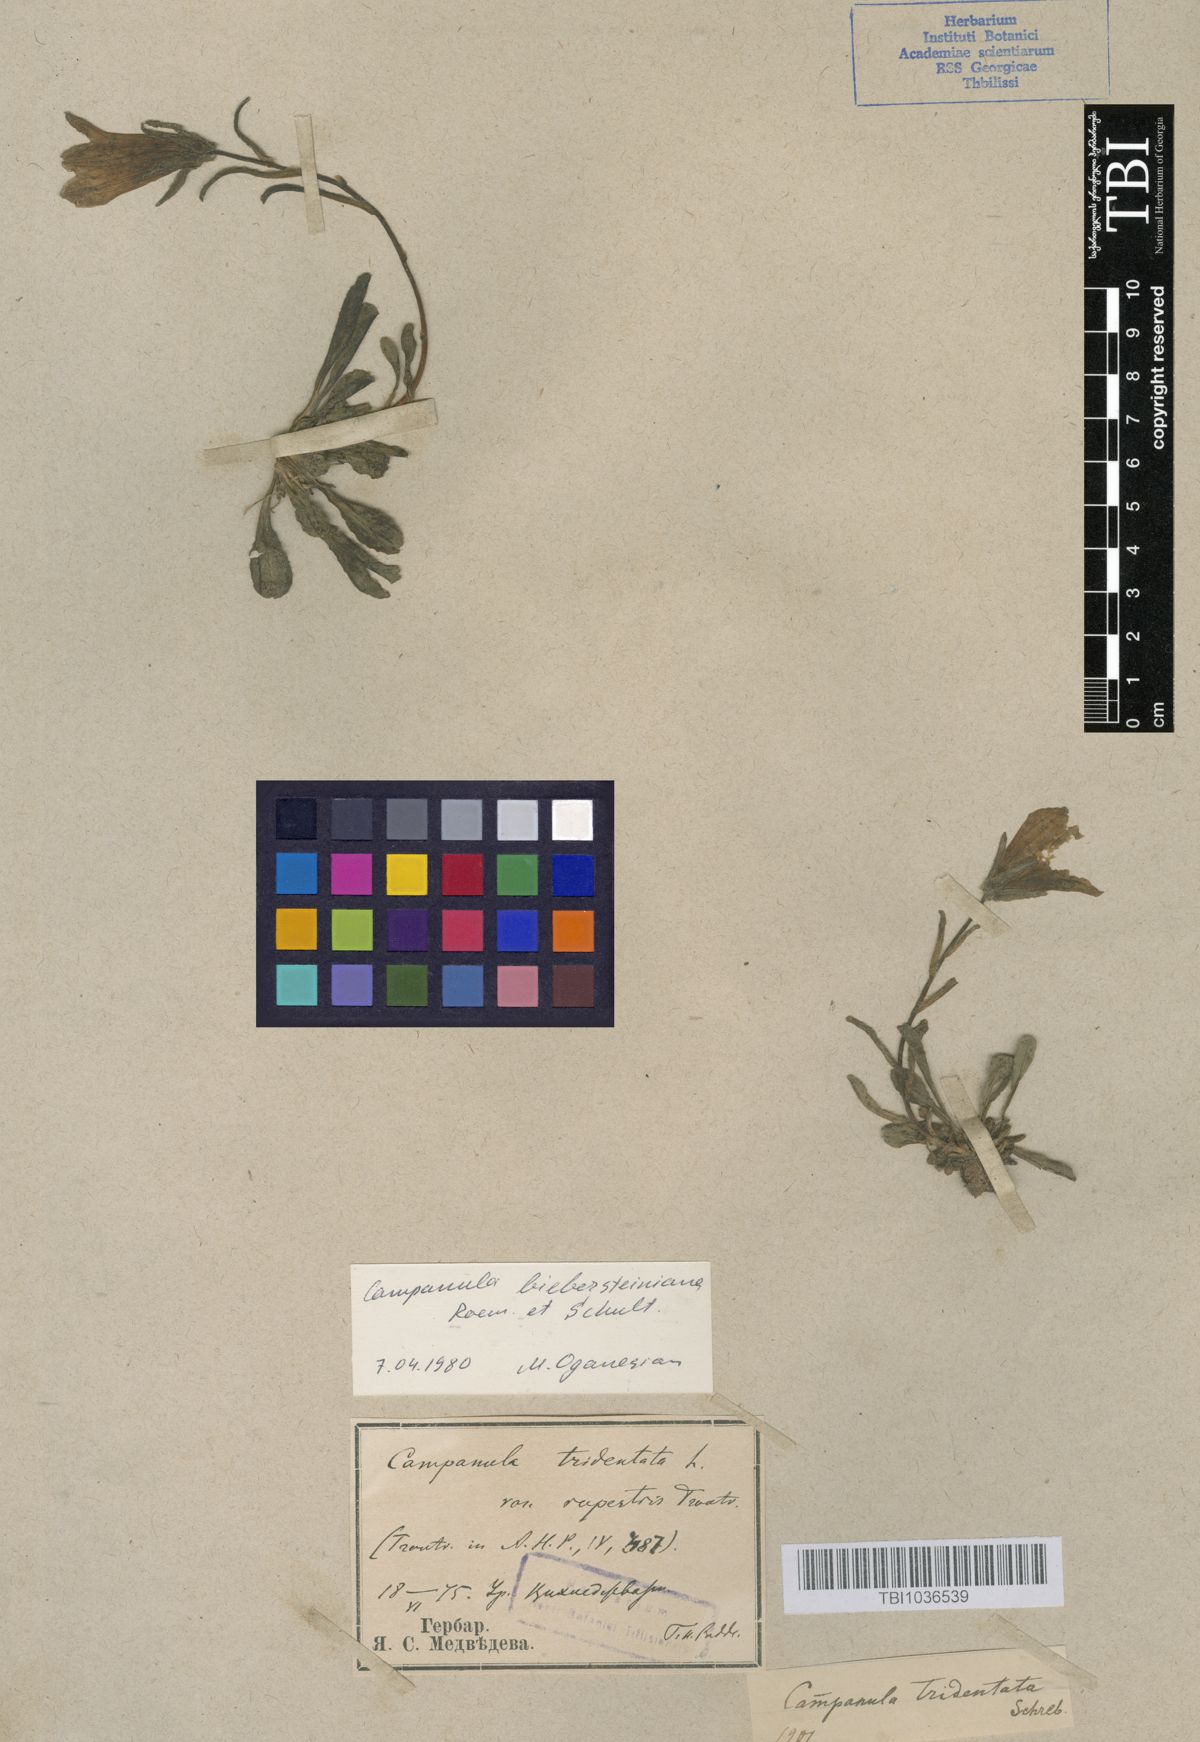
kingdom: Plantae
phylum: Tracheophyta
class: Magnoliopsida
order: Asterales
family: Campanulaceae
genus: Campanula
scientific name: Campanula tridentata
